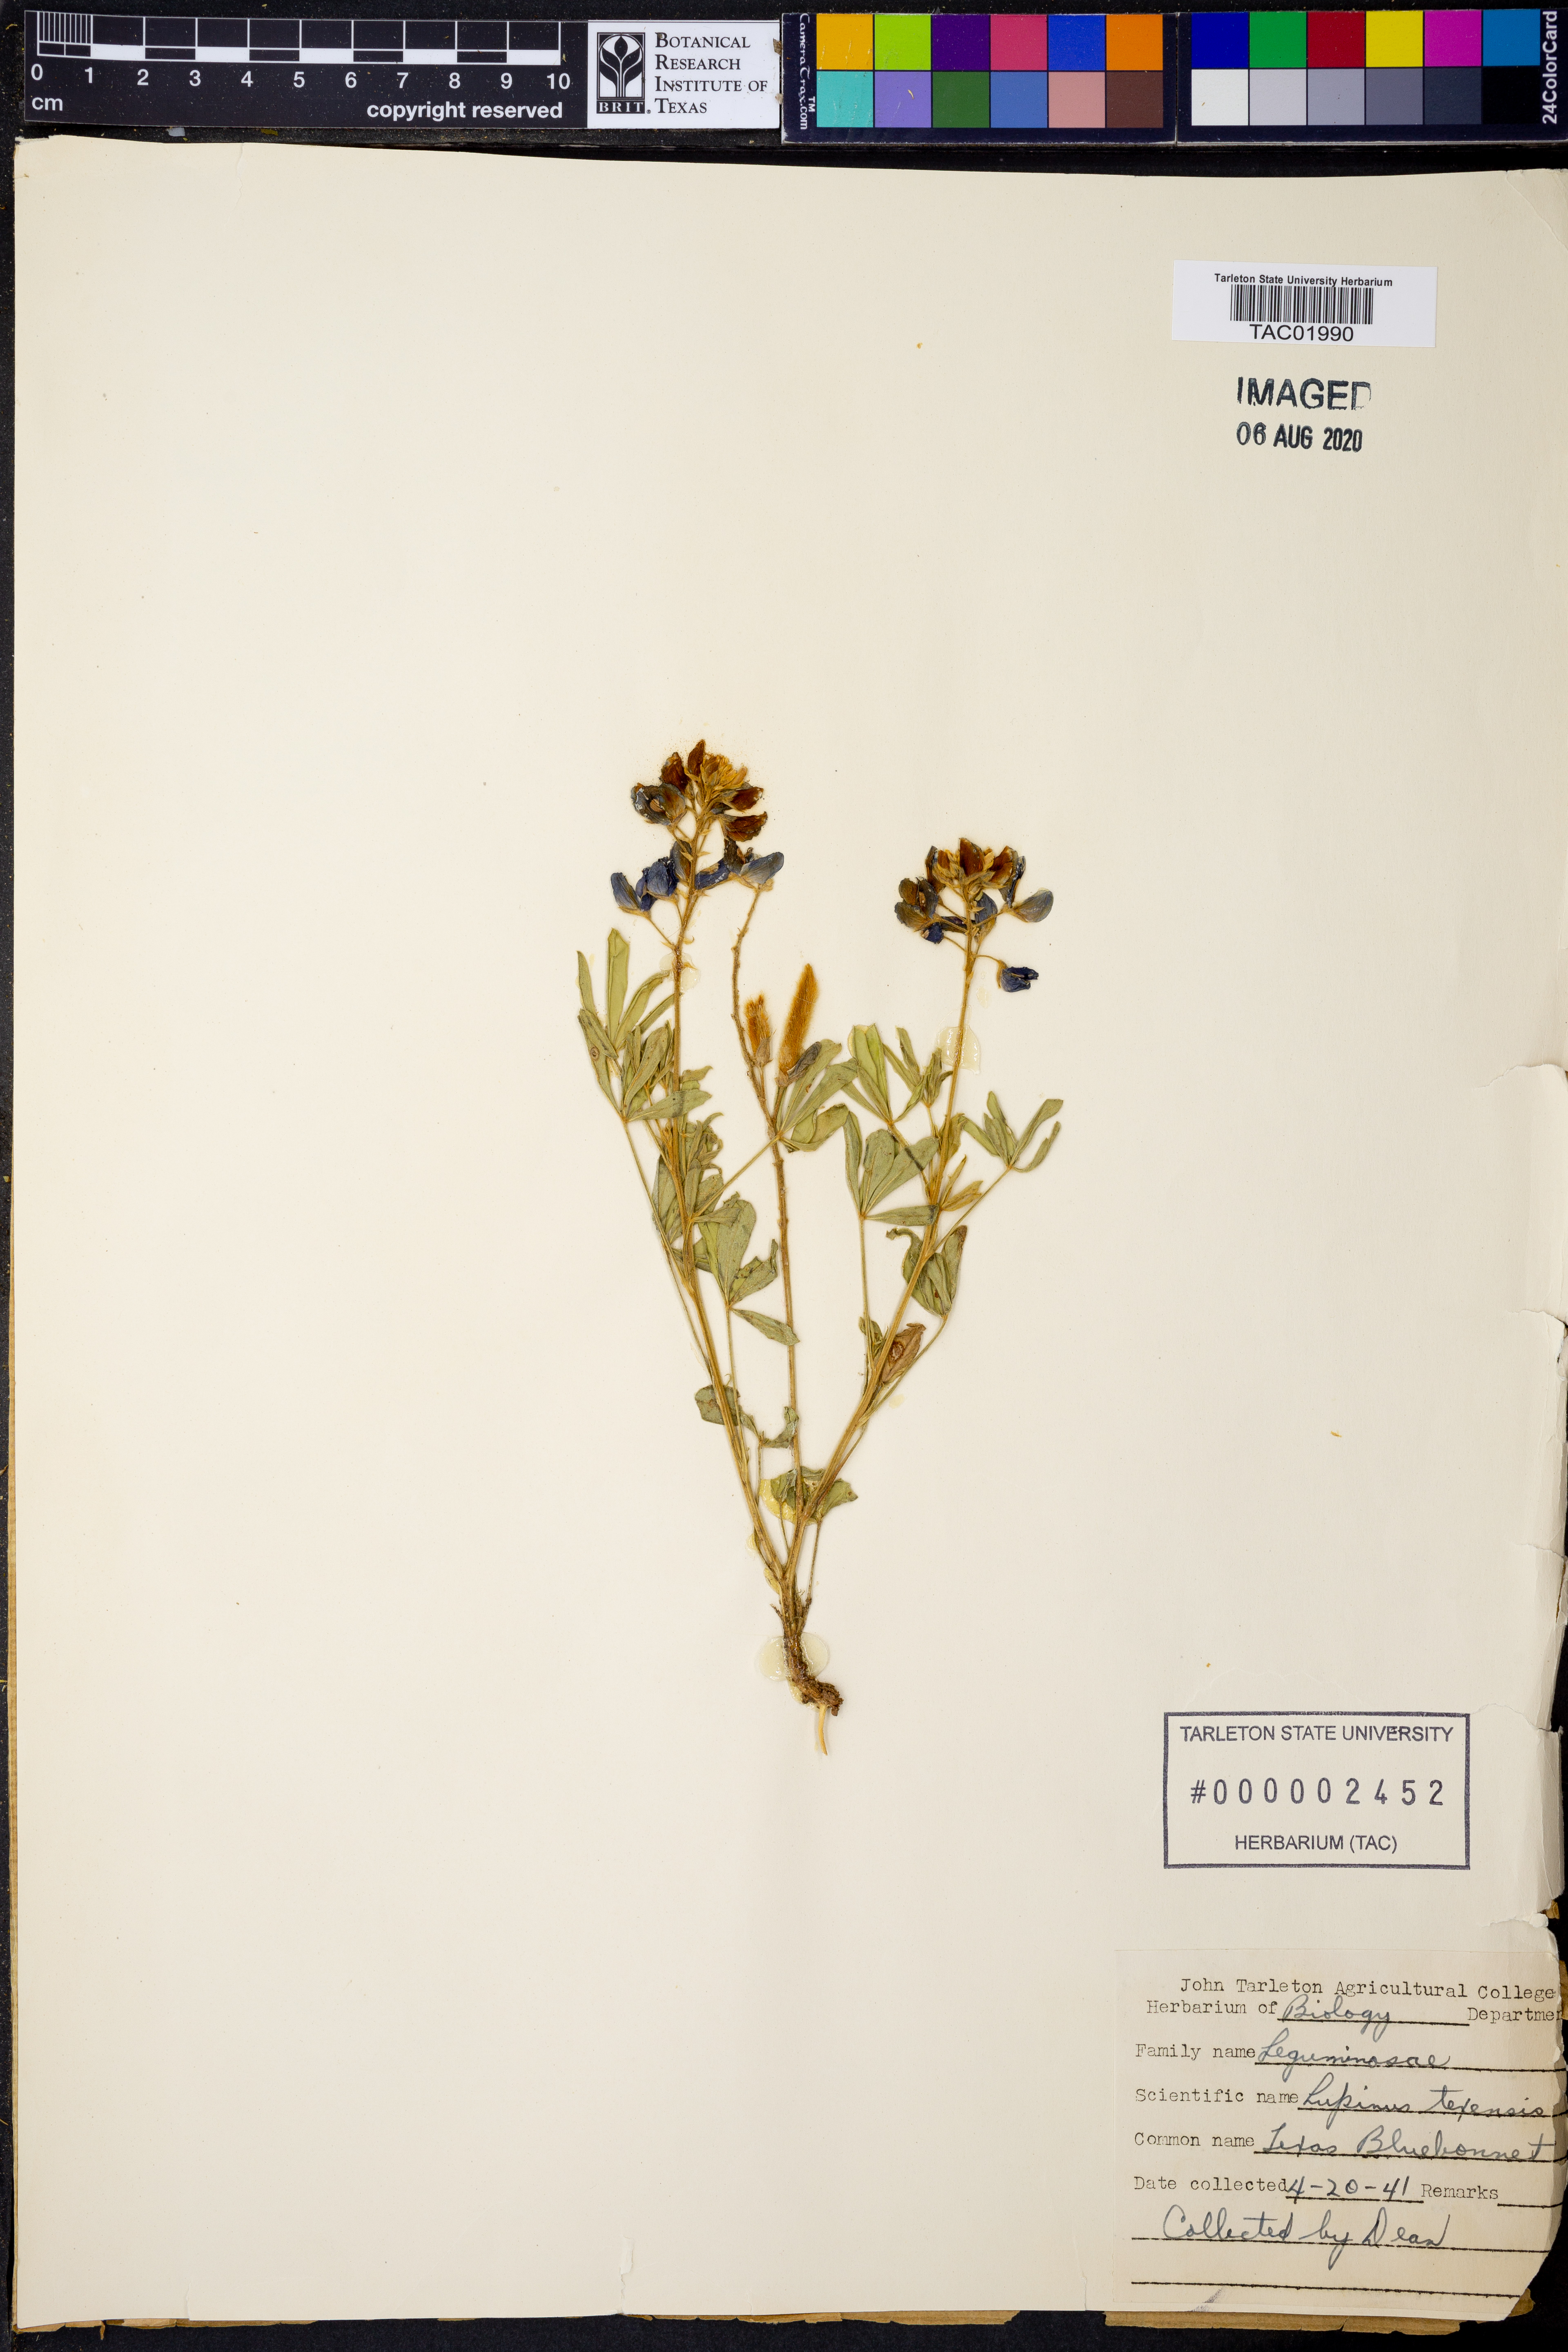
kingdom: Plantae
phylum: Tracheophyta
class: Magnoliopsida
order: Fabales
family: Fabaceae
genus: Lupinus
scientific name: Lupinus texensis
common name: Texas bluebonnet
